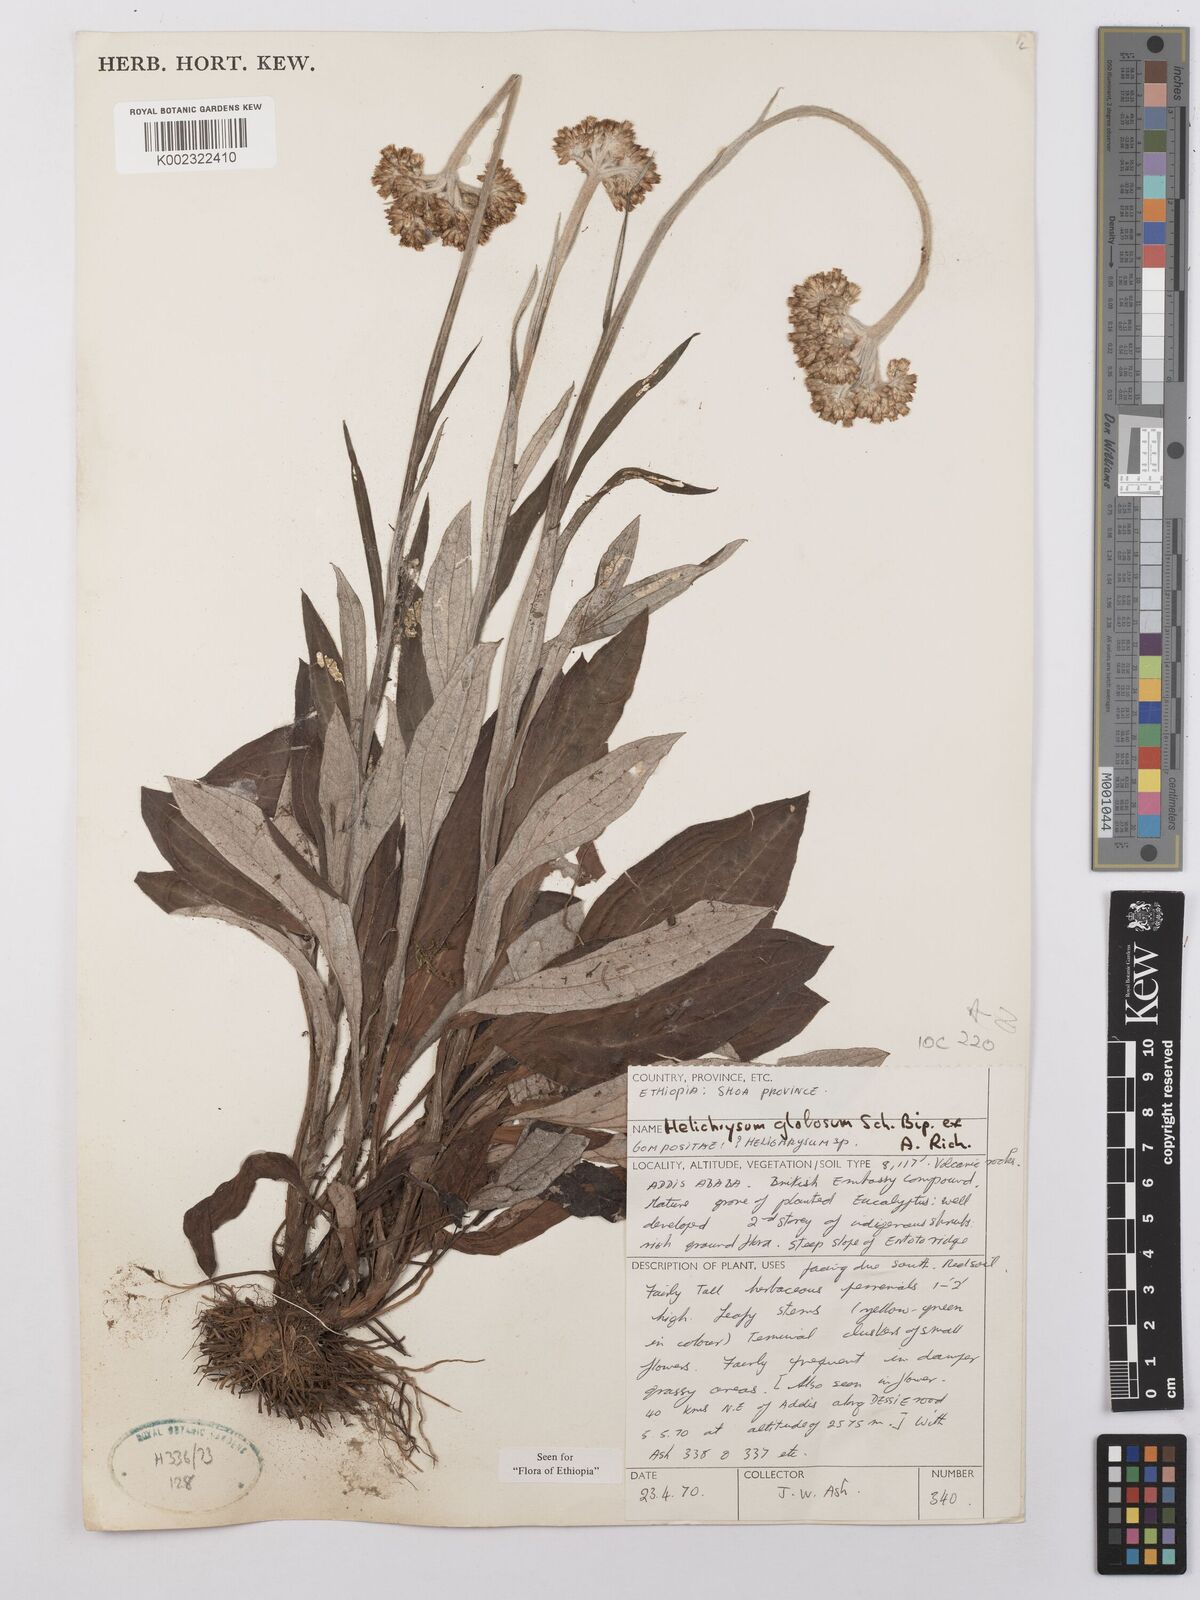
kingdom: Plantae
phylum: Tracheophyta
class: Magnoliopsida
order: Asterales
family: Asteraceae
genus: Helichrysum
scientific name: Helichrysum globosum
